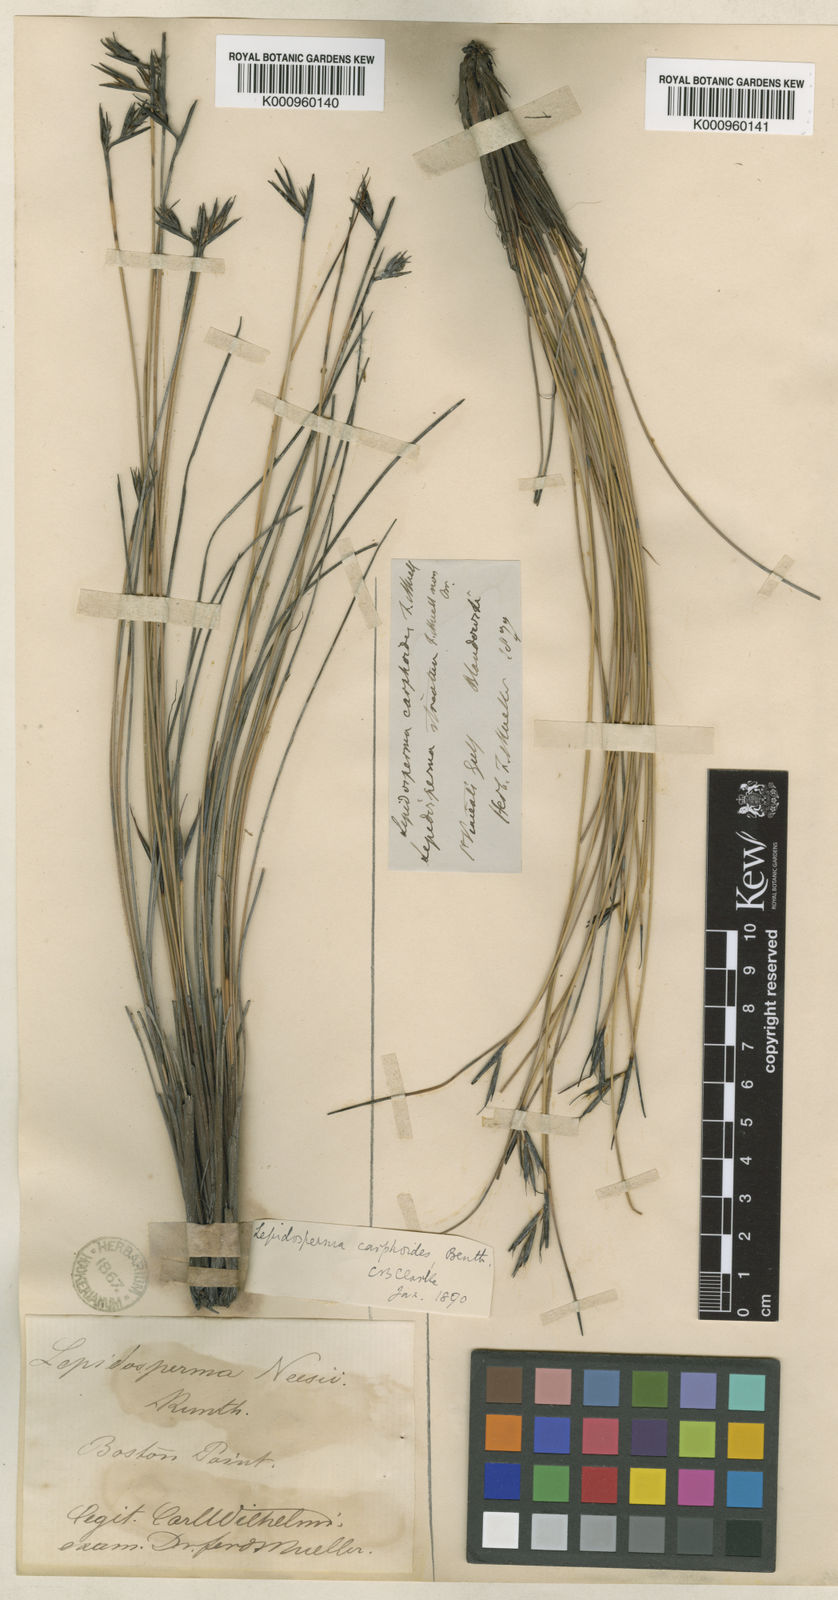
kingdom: Plantae
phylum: Tracheophyta
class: Liliopsida
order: Poales
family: Cyperaceae
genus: Lepidosperma
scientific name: Lepidosperma carphoides
